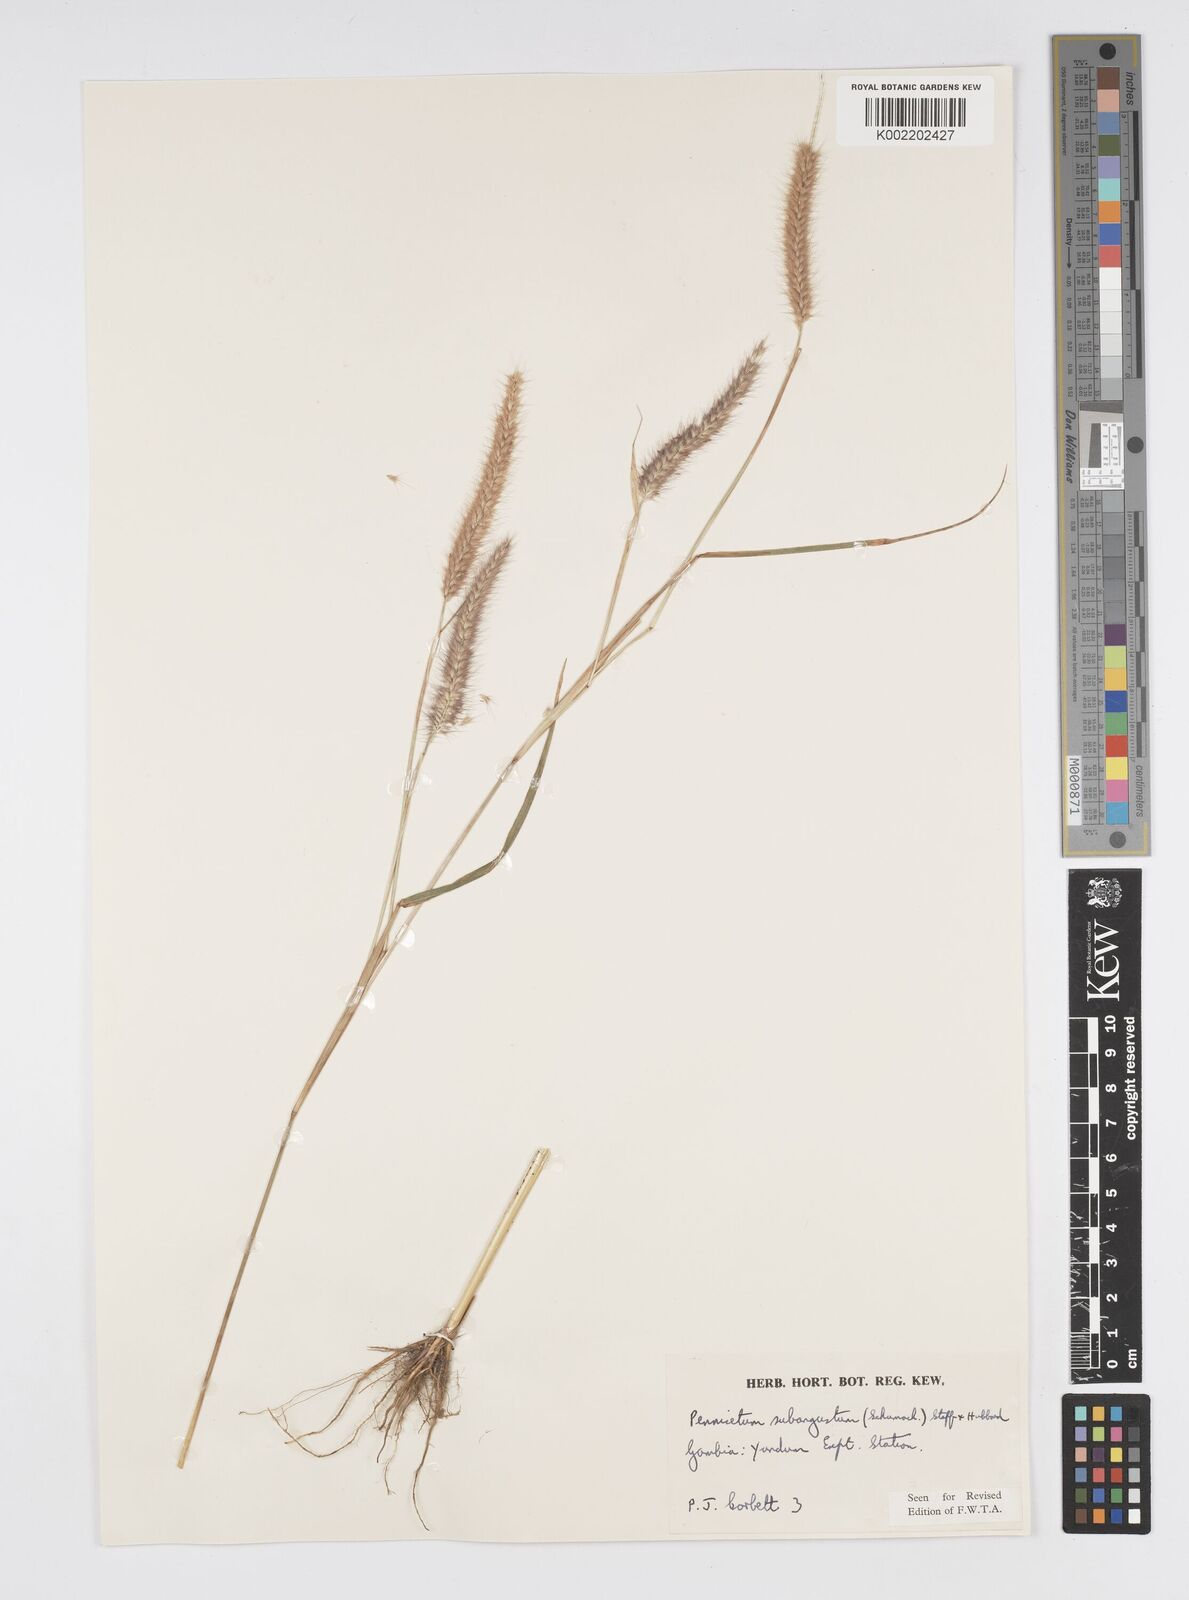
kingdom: Plantae
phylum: Tracheophyta
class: Liliopsida
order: Poales
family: Poaceae
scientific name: Poaceae
